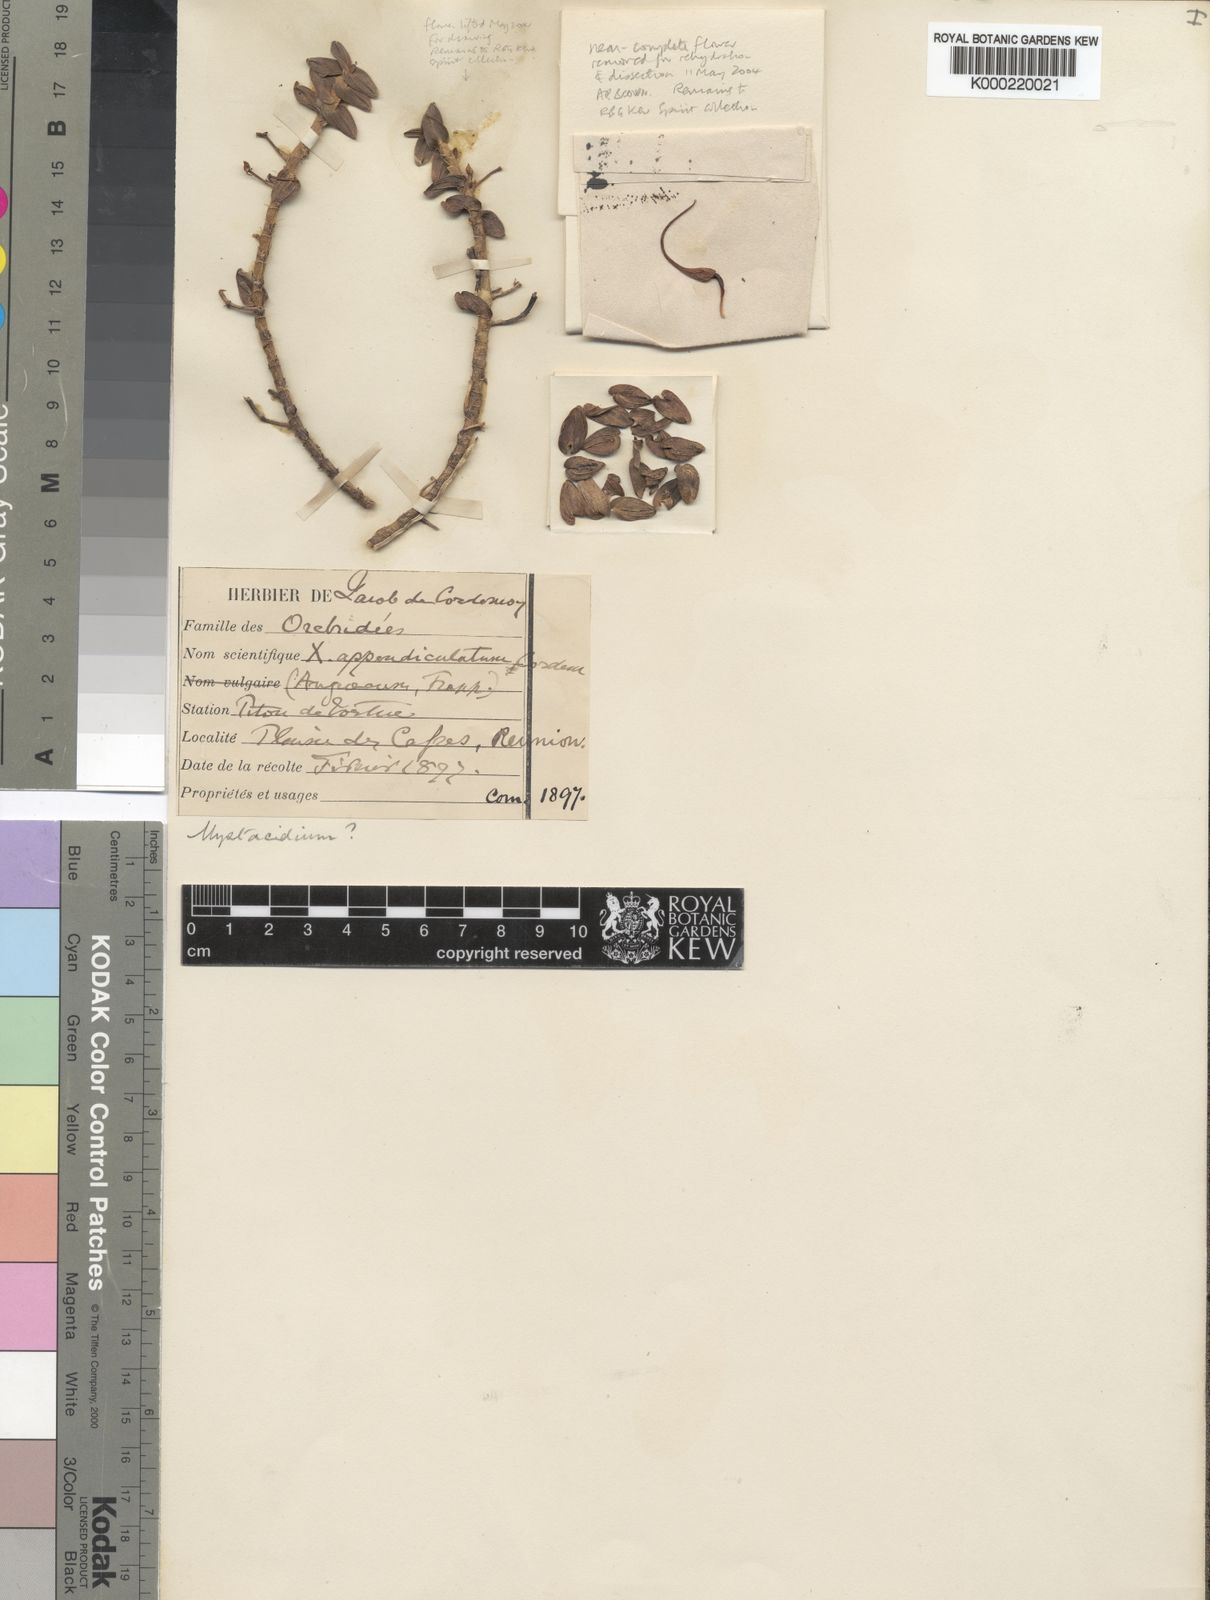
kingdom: Plantae
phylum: Tracheophyta
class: Liliopsida
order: Asparagales
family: Orchidaceae
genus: Angraecum
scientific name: Angraecum appendiculatum
